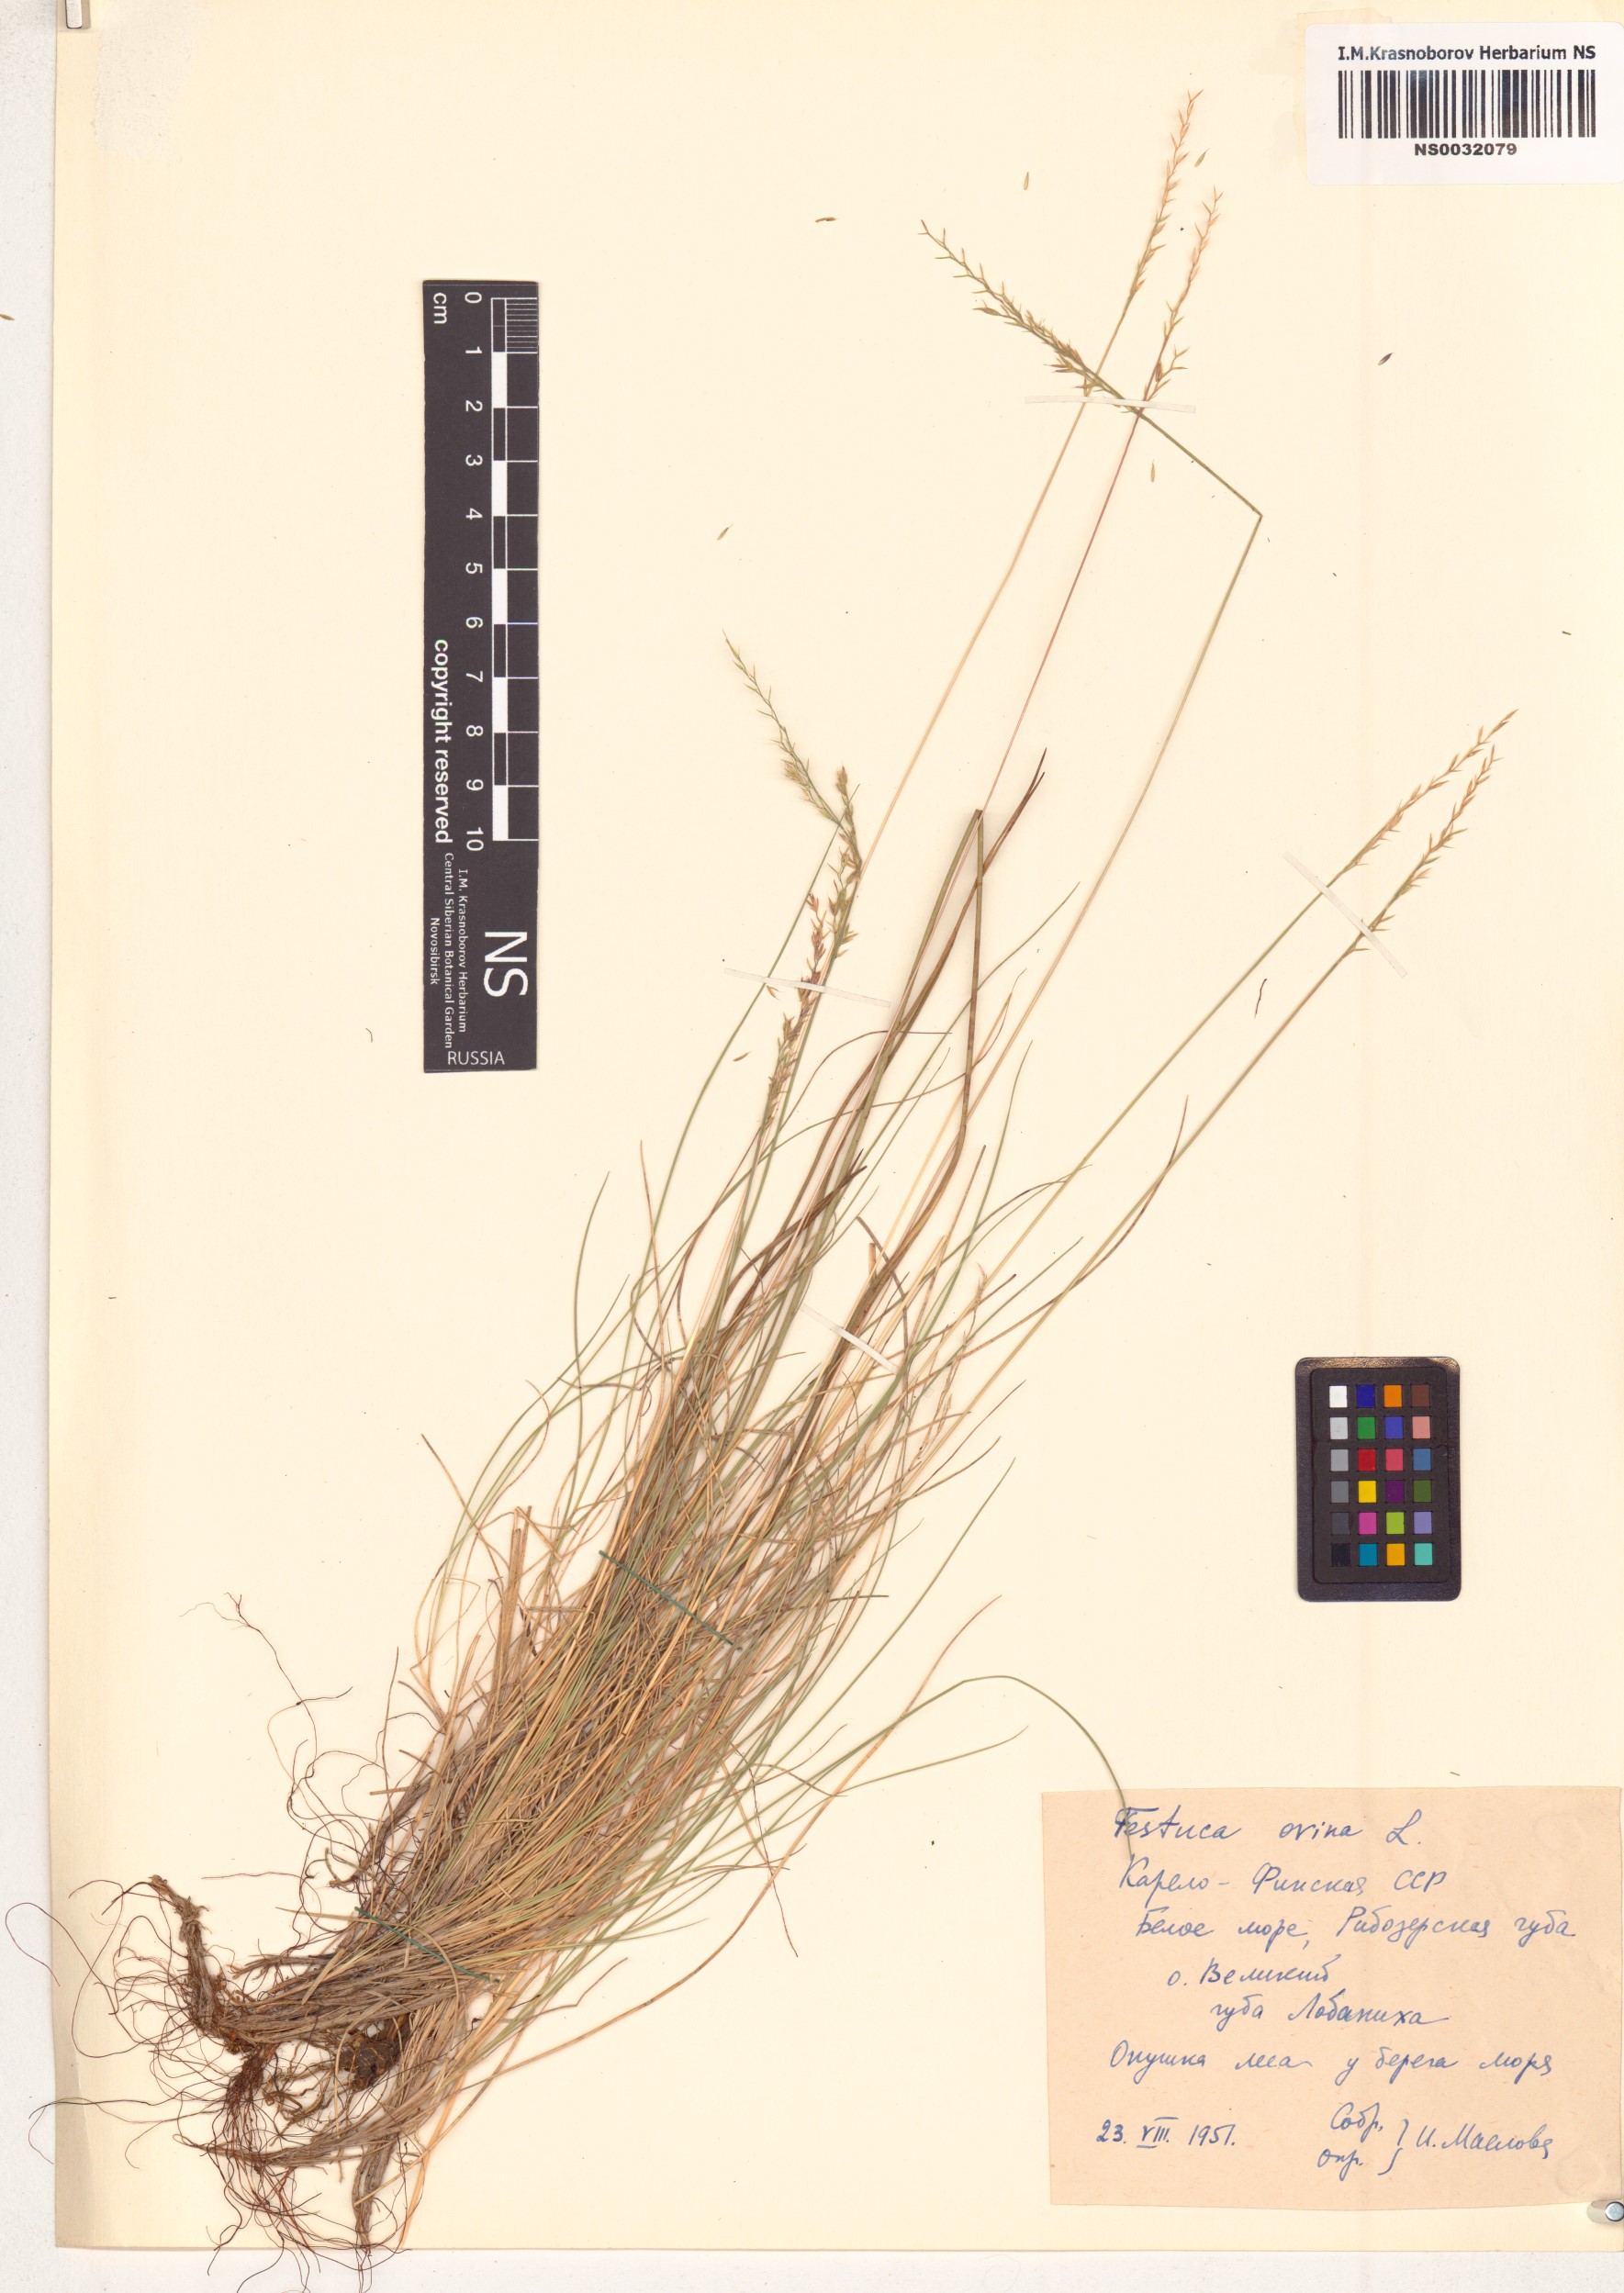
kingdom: Plantae
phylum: Tracheophyta
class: Liliopsida
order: Poales
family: Poaceae
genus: Festuca
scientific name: Festuca ovina
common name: Sheep fescue
